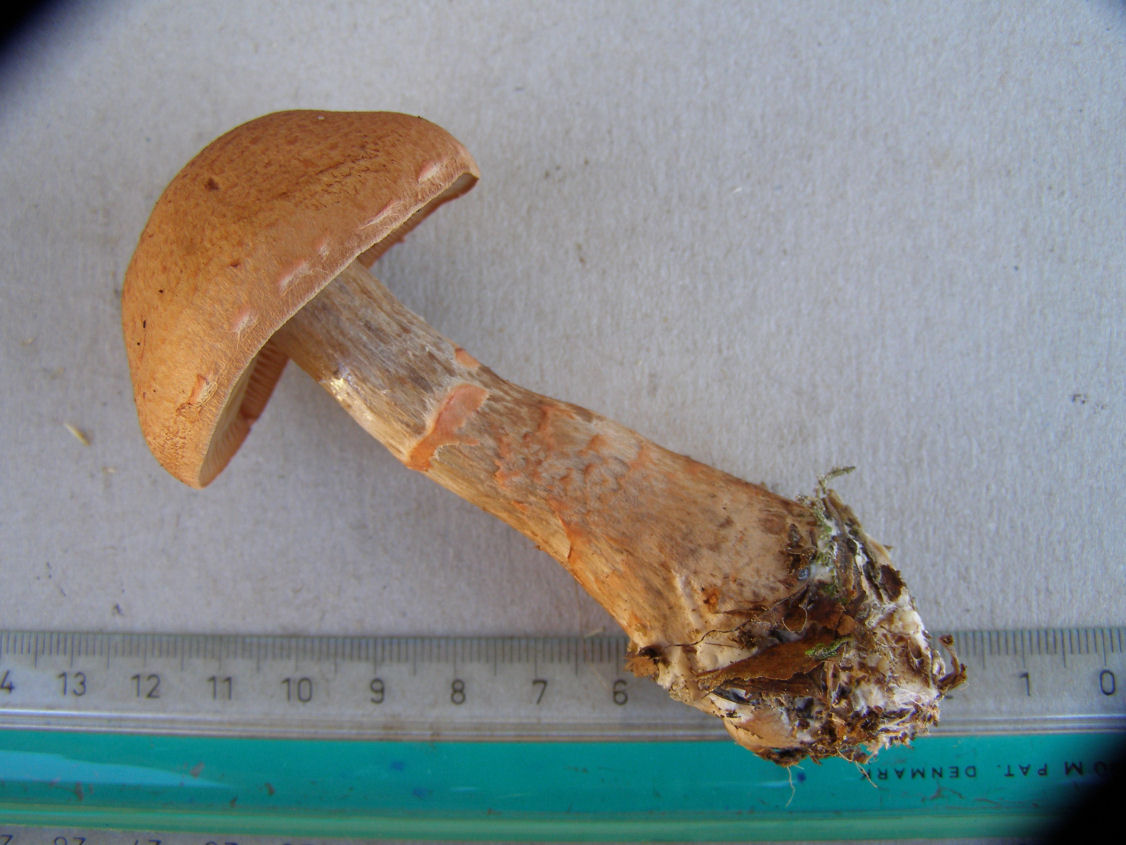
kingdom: Fungi
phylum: Basidiomycota
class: Agaricomycetes
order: Agaricales
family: Cortinariaceae
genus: Cortinarius
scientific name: Cortinarius armillatus
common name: cinnoberbæltet slørhat
